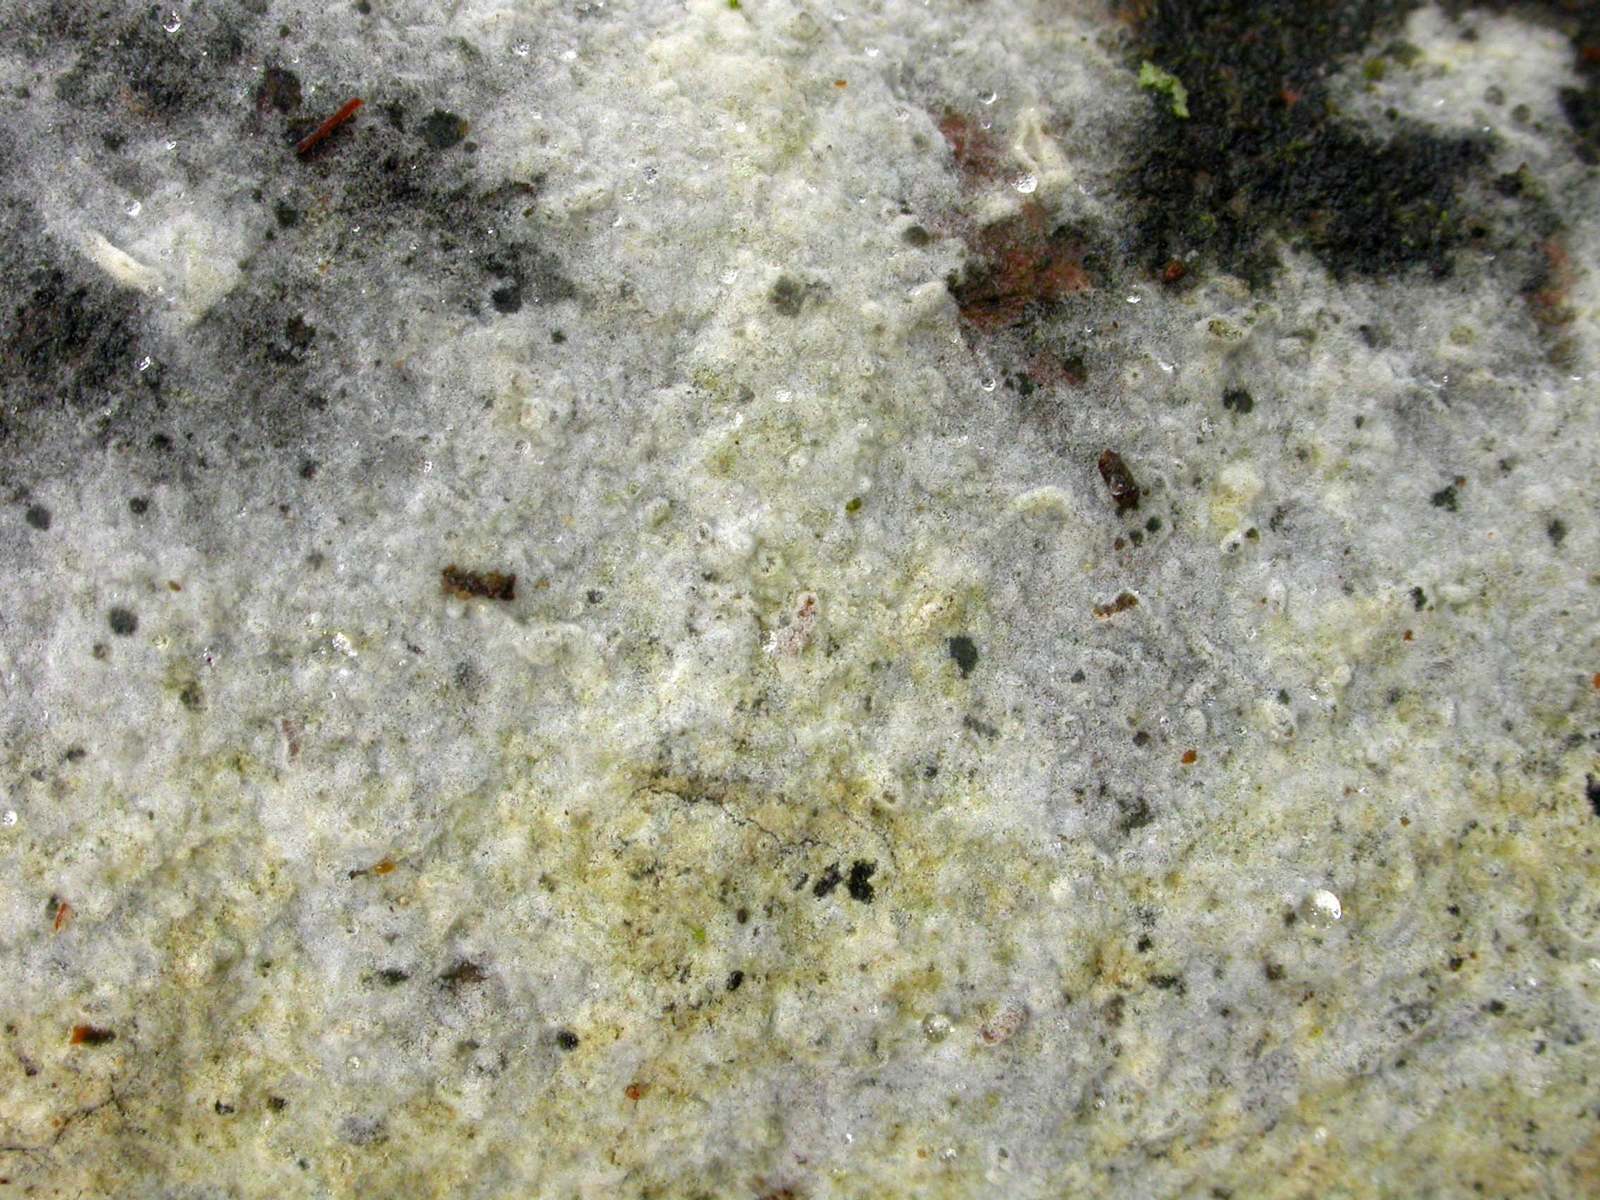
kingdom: Fungi
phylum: Basidiomycota
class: Agaricomycetes
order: Cantharellales
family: Botryobasidiaceae
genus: Botryobasidium
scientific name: Botryobasidium vagum
